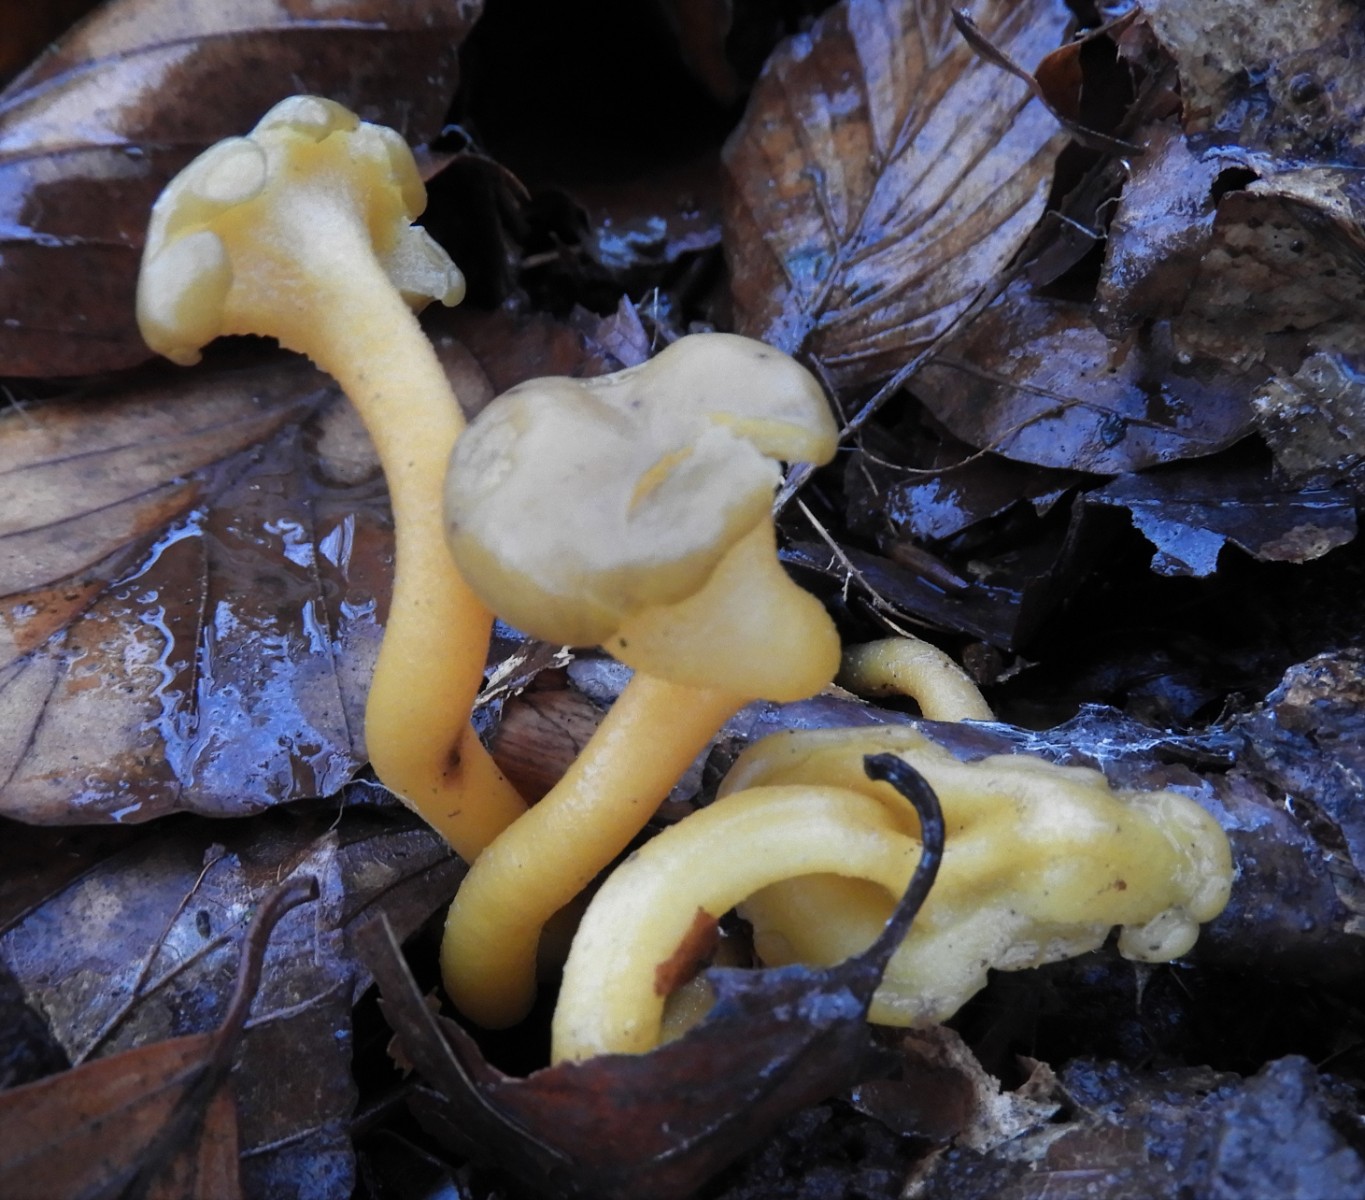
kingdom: Fungi
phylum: Ascomycota
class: Leotiomycetes
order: Leotiales
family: Leotiaceae
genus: Leotia
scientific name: Leotia lubrica
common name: ravsvamp
